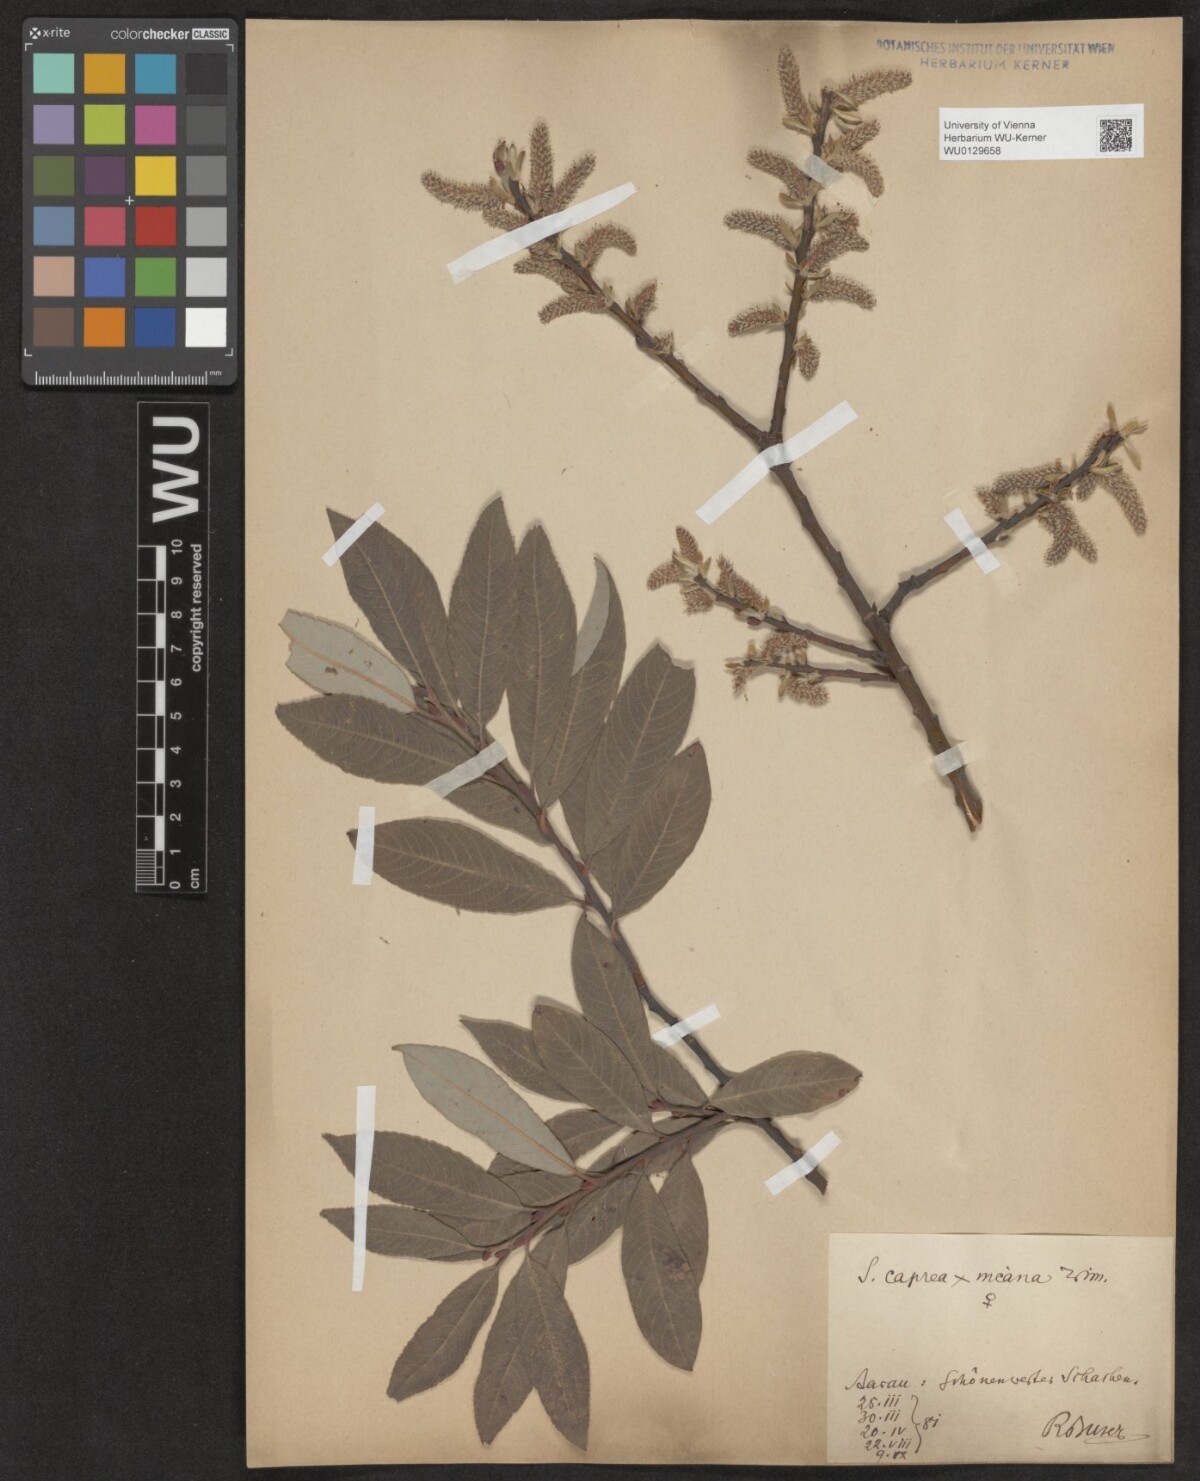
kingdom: Plantae
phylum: Tracheophyta
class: Magnoliopsida
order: Malpighiales
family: Salicaceae
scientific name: Salicaceae
